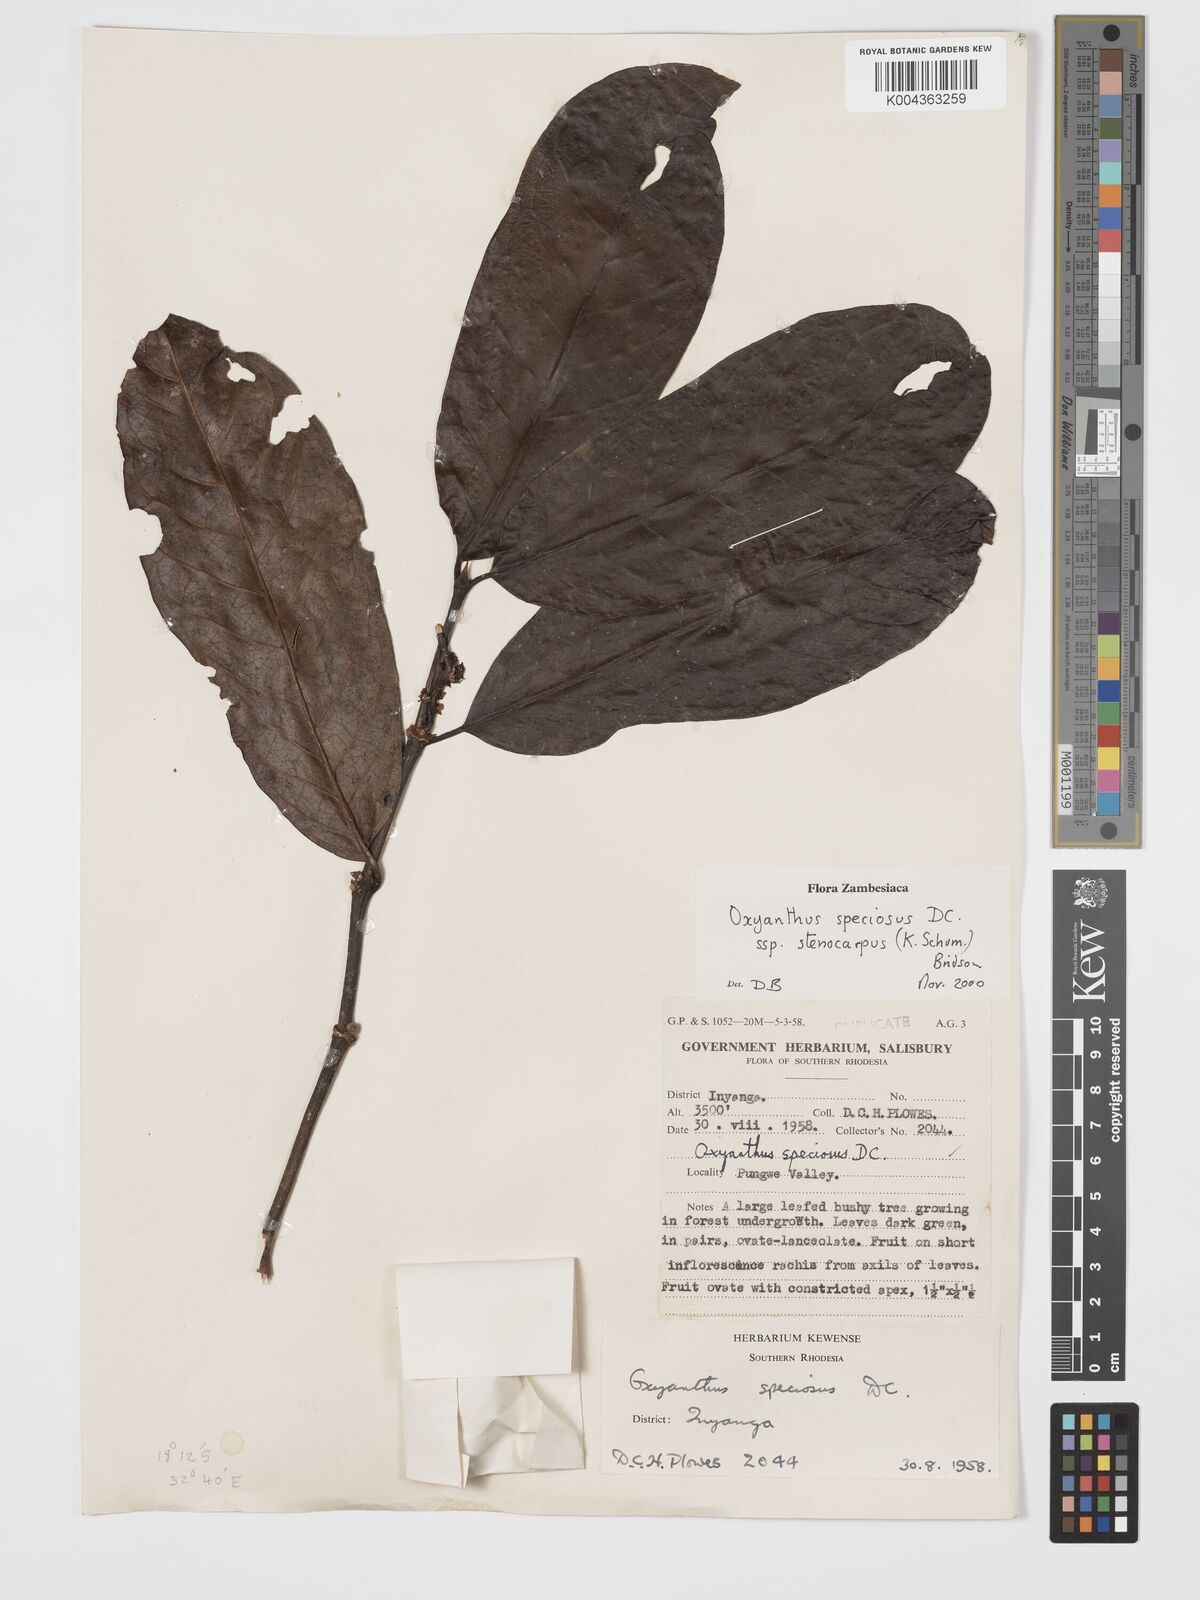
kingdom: Plantae
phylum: Tracheophyta
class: Magnoliopsida
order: Gentianales
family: Rubiaceae
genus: Oxyanthus
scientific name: Oxyanthus speciosus
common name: Whipstick loquat
